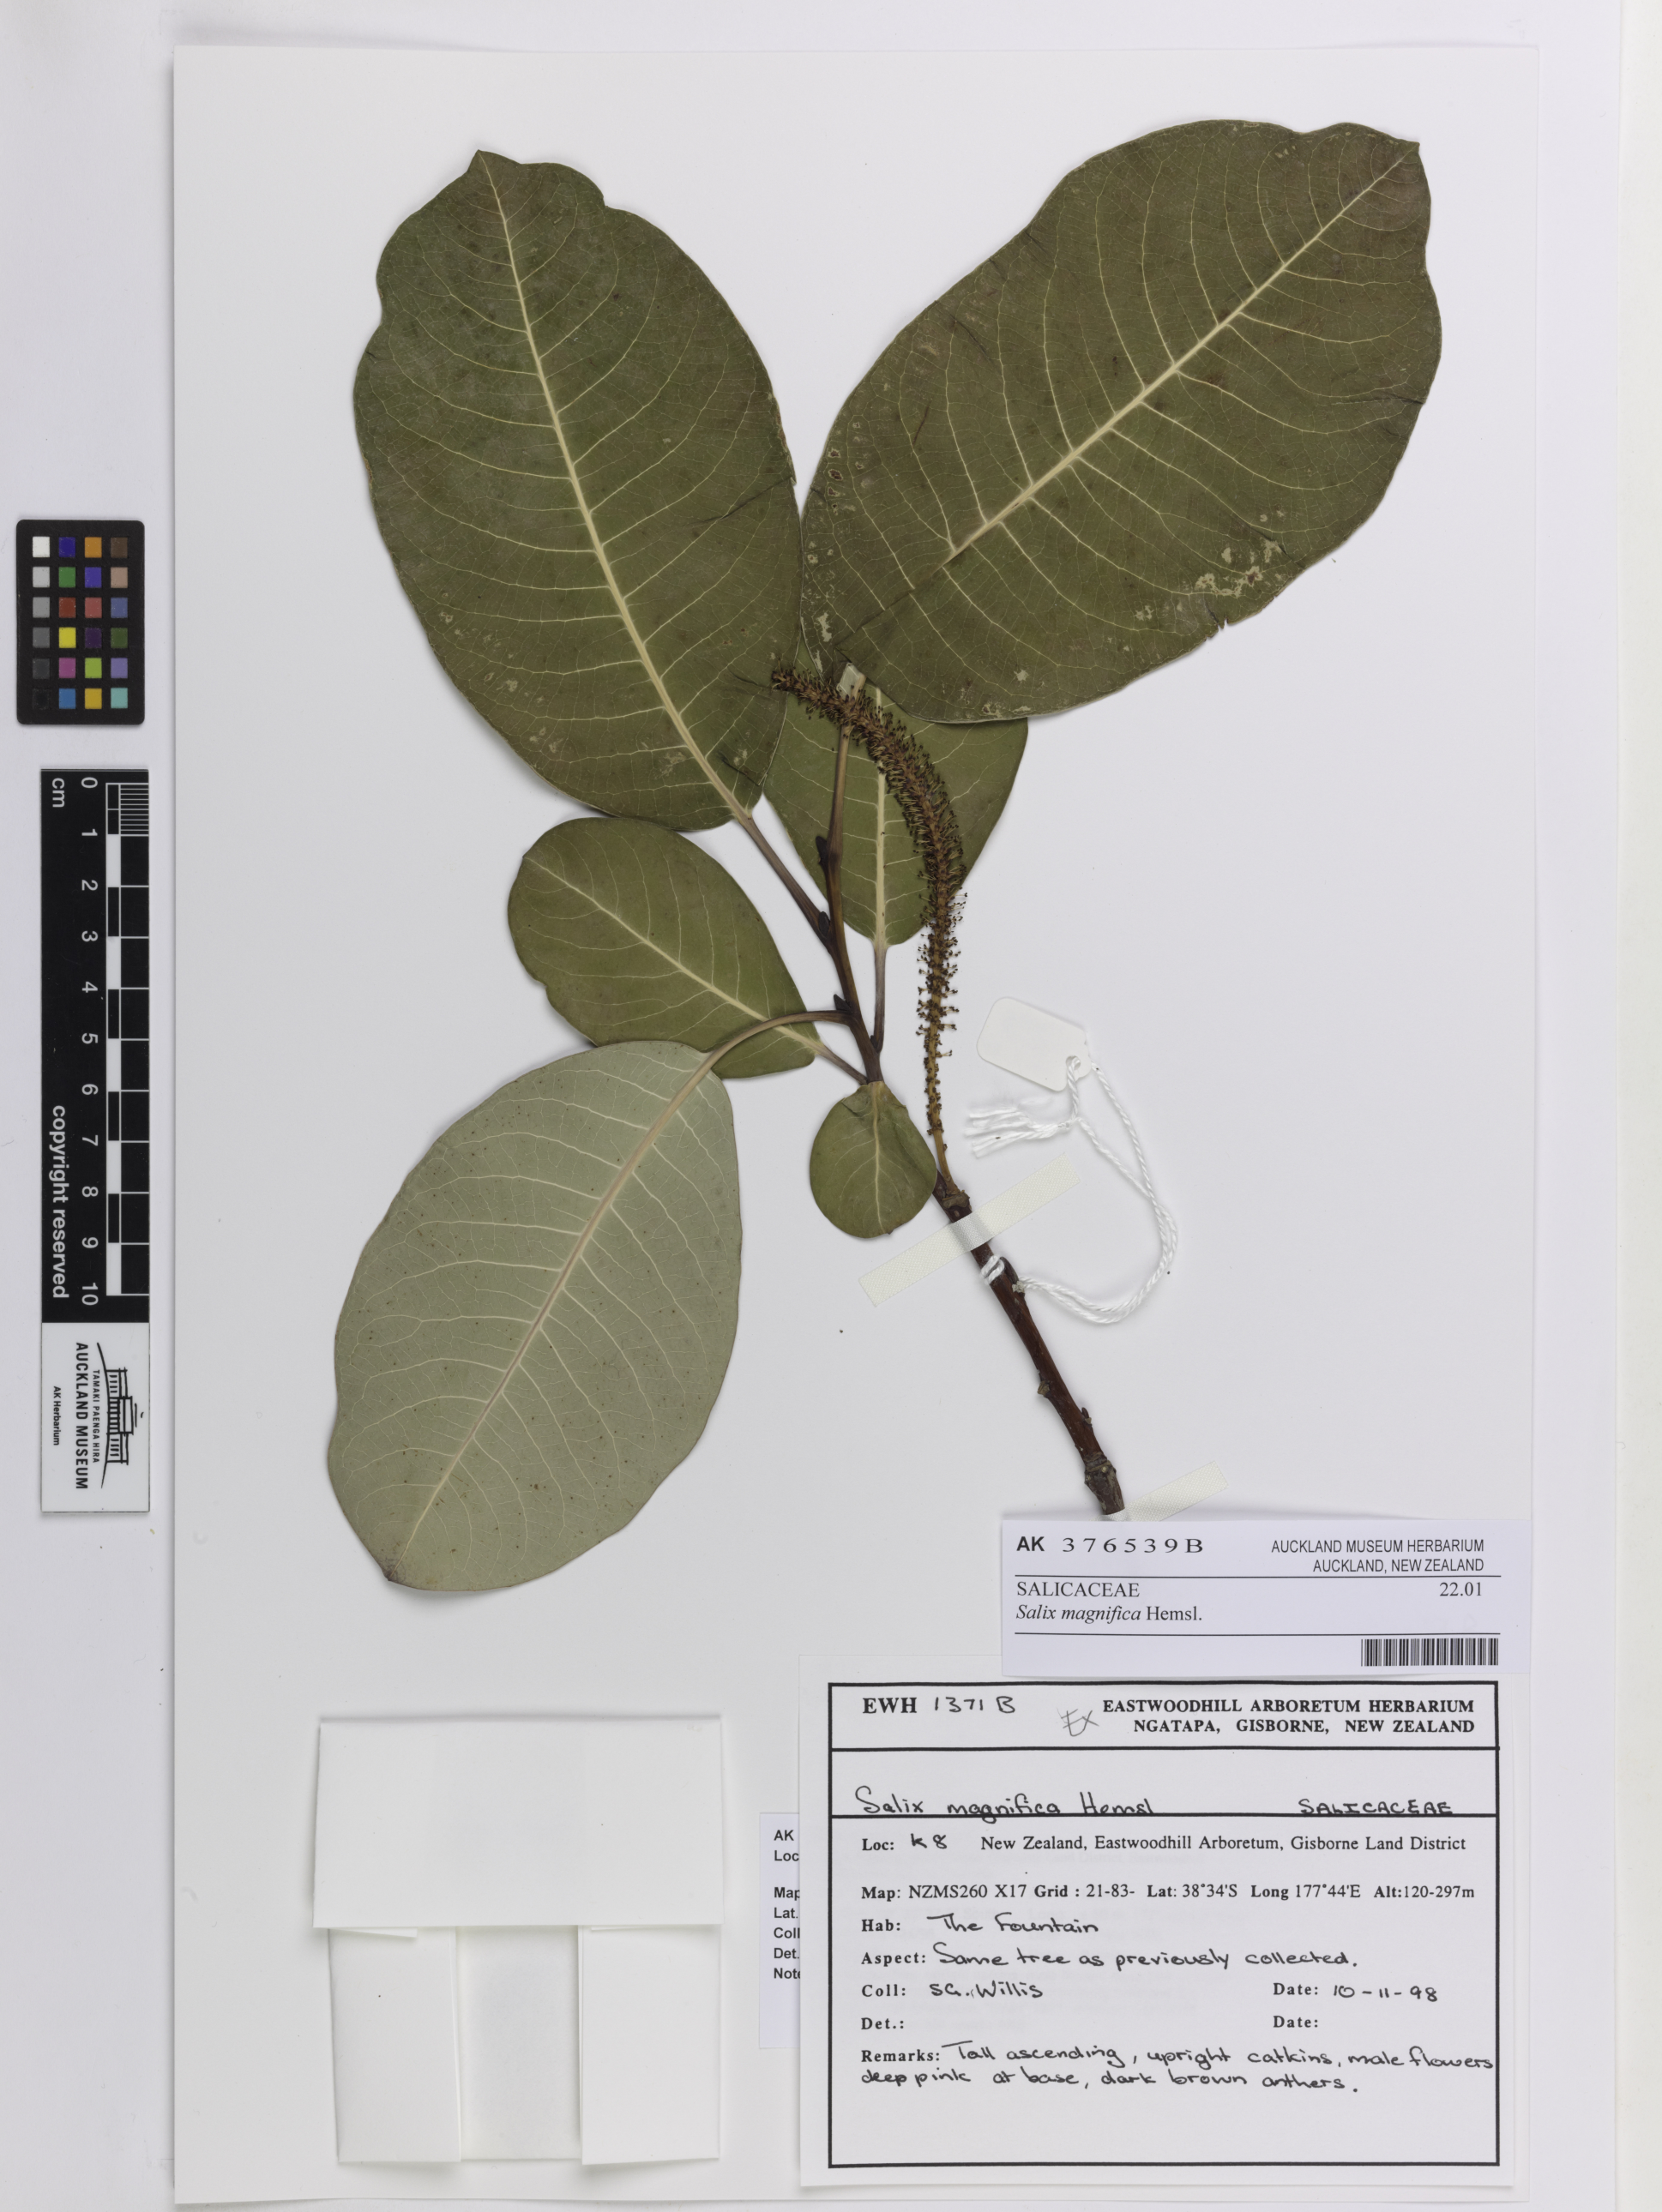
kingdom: Plantae
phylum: Tracheophyta
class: Magnoliopsida
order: Malpighiales
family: Salicaceae
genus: Salix
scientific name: Salix magnifica
